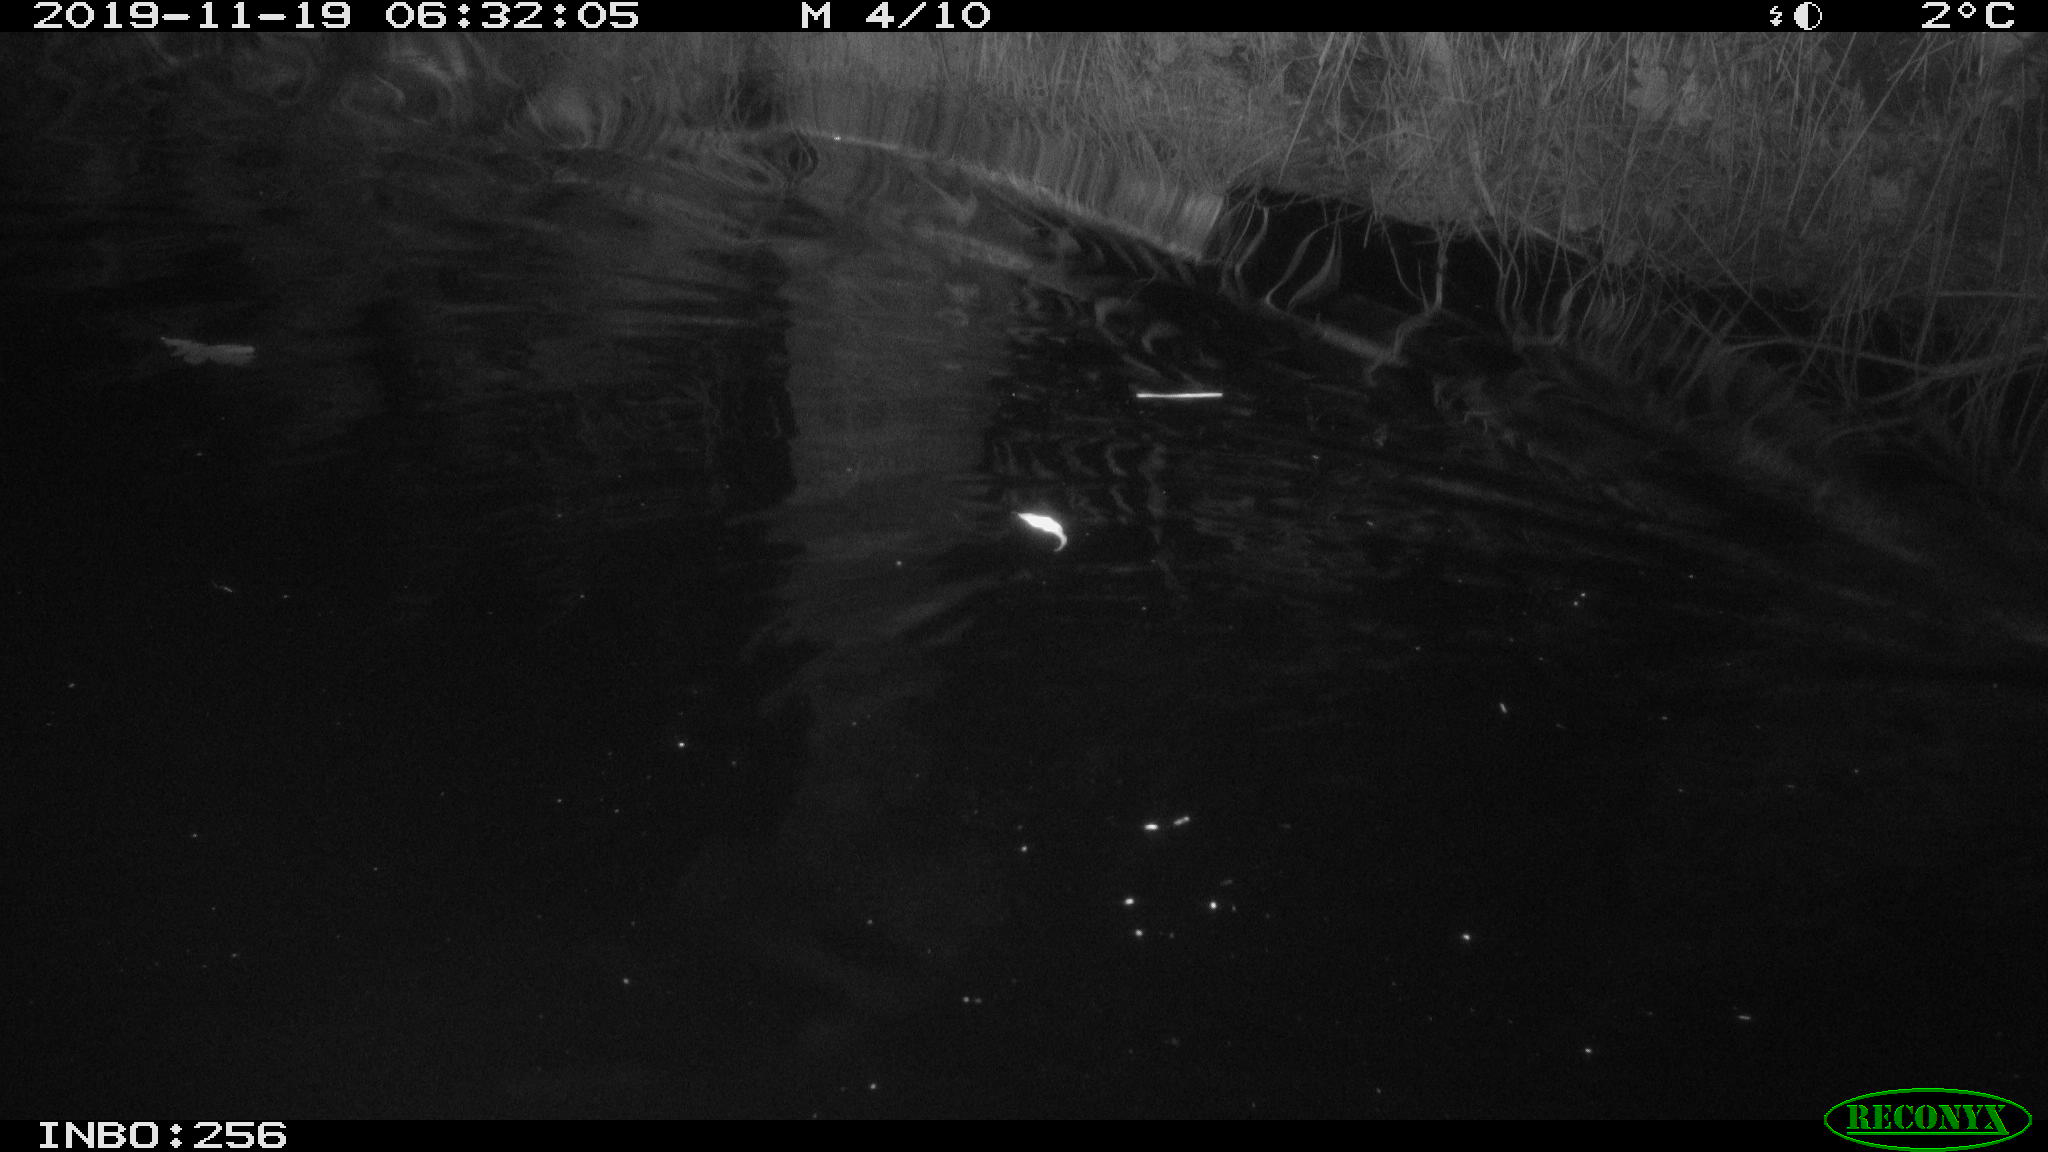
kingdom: Animalia
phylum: Chordata
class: Mammalia
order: Rodentia
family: Cricetidae
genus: Ondatra
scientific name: Ondatra zibethicus
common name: Muskrat
